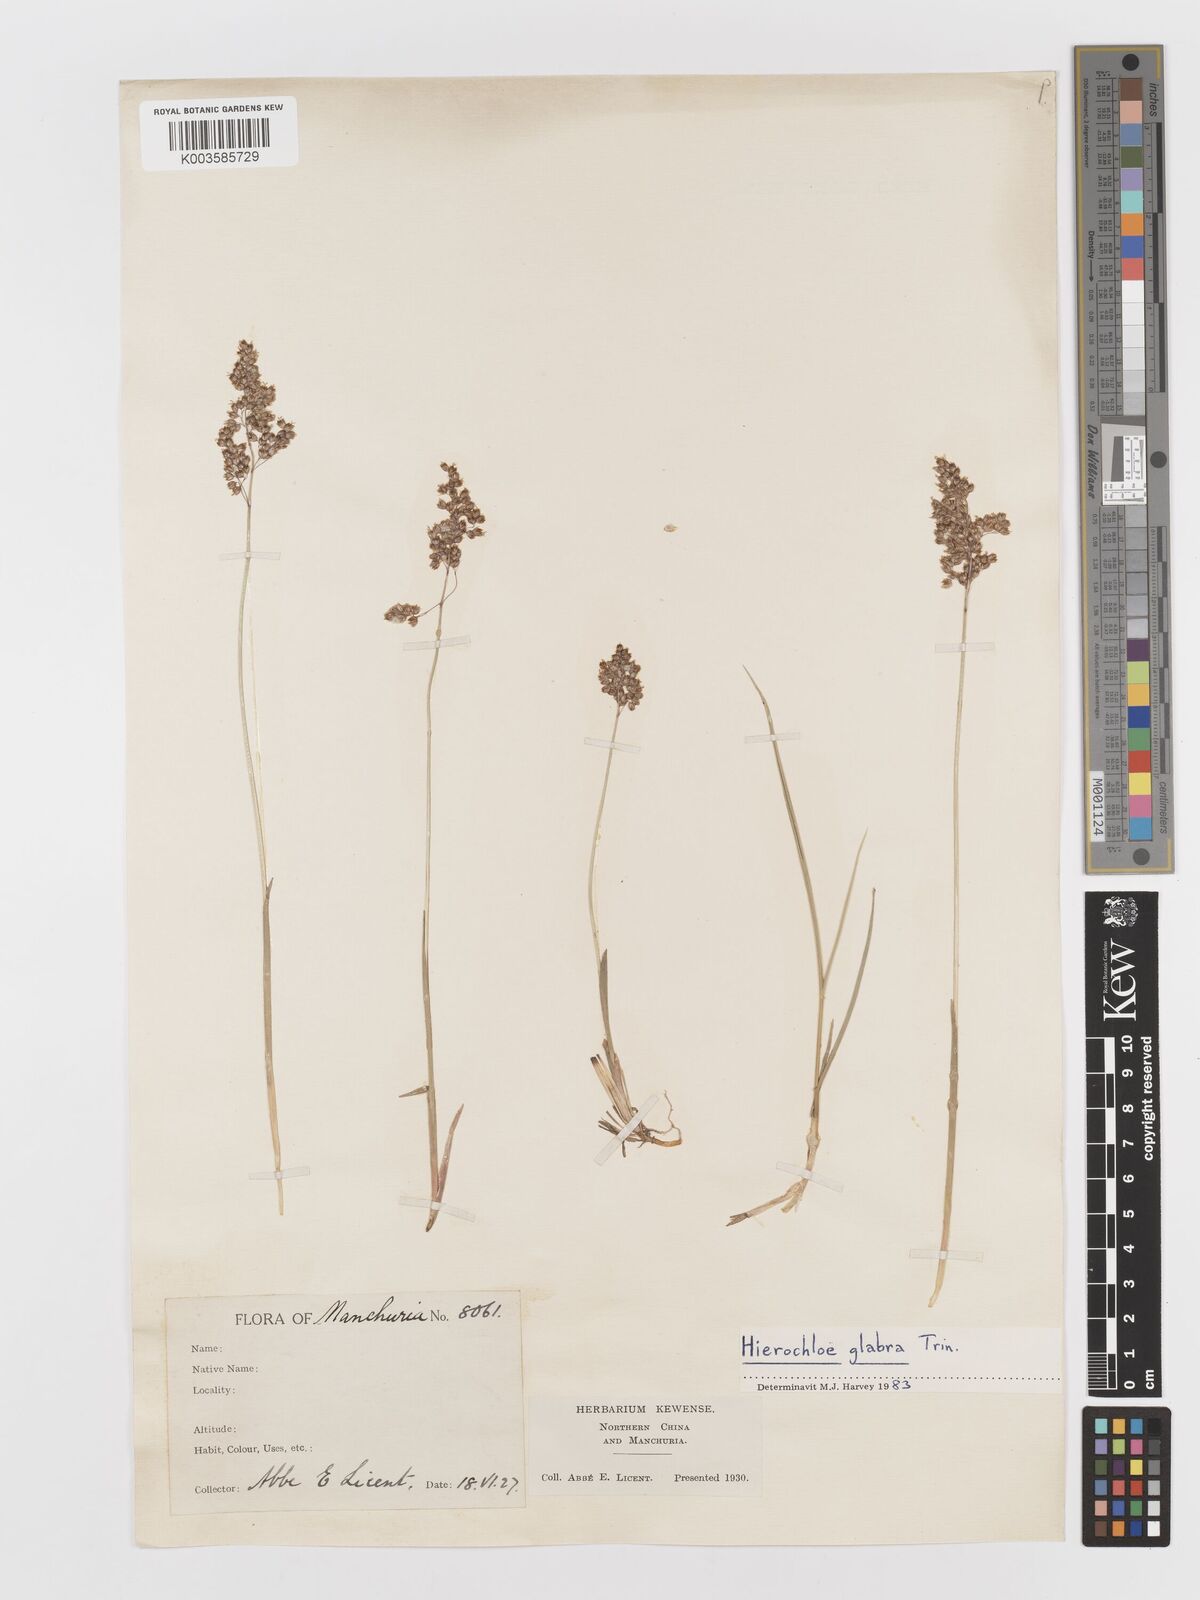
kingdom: Plantae
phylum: Tracheophyta
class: Liliopsida
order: Poales
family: Poaceae
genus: Anthoxanthum
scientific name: Anthoxanthum glabrum
